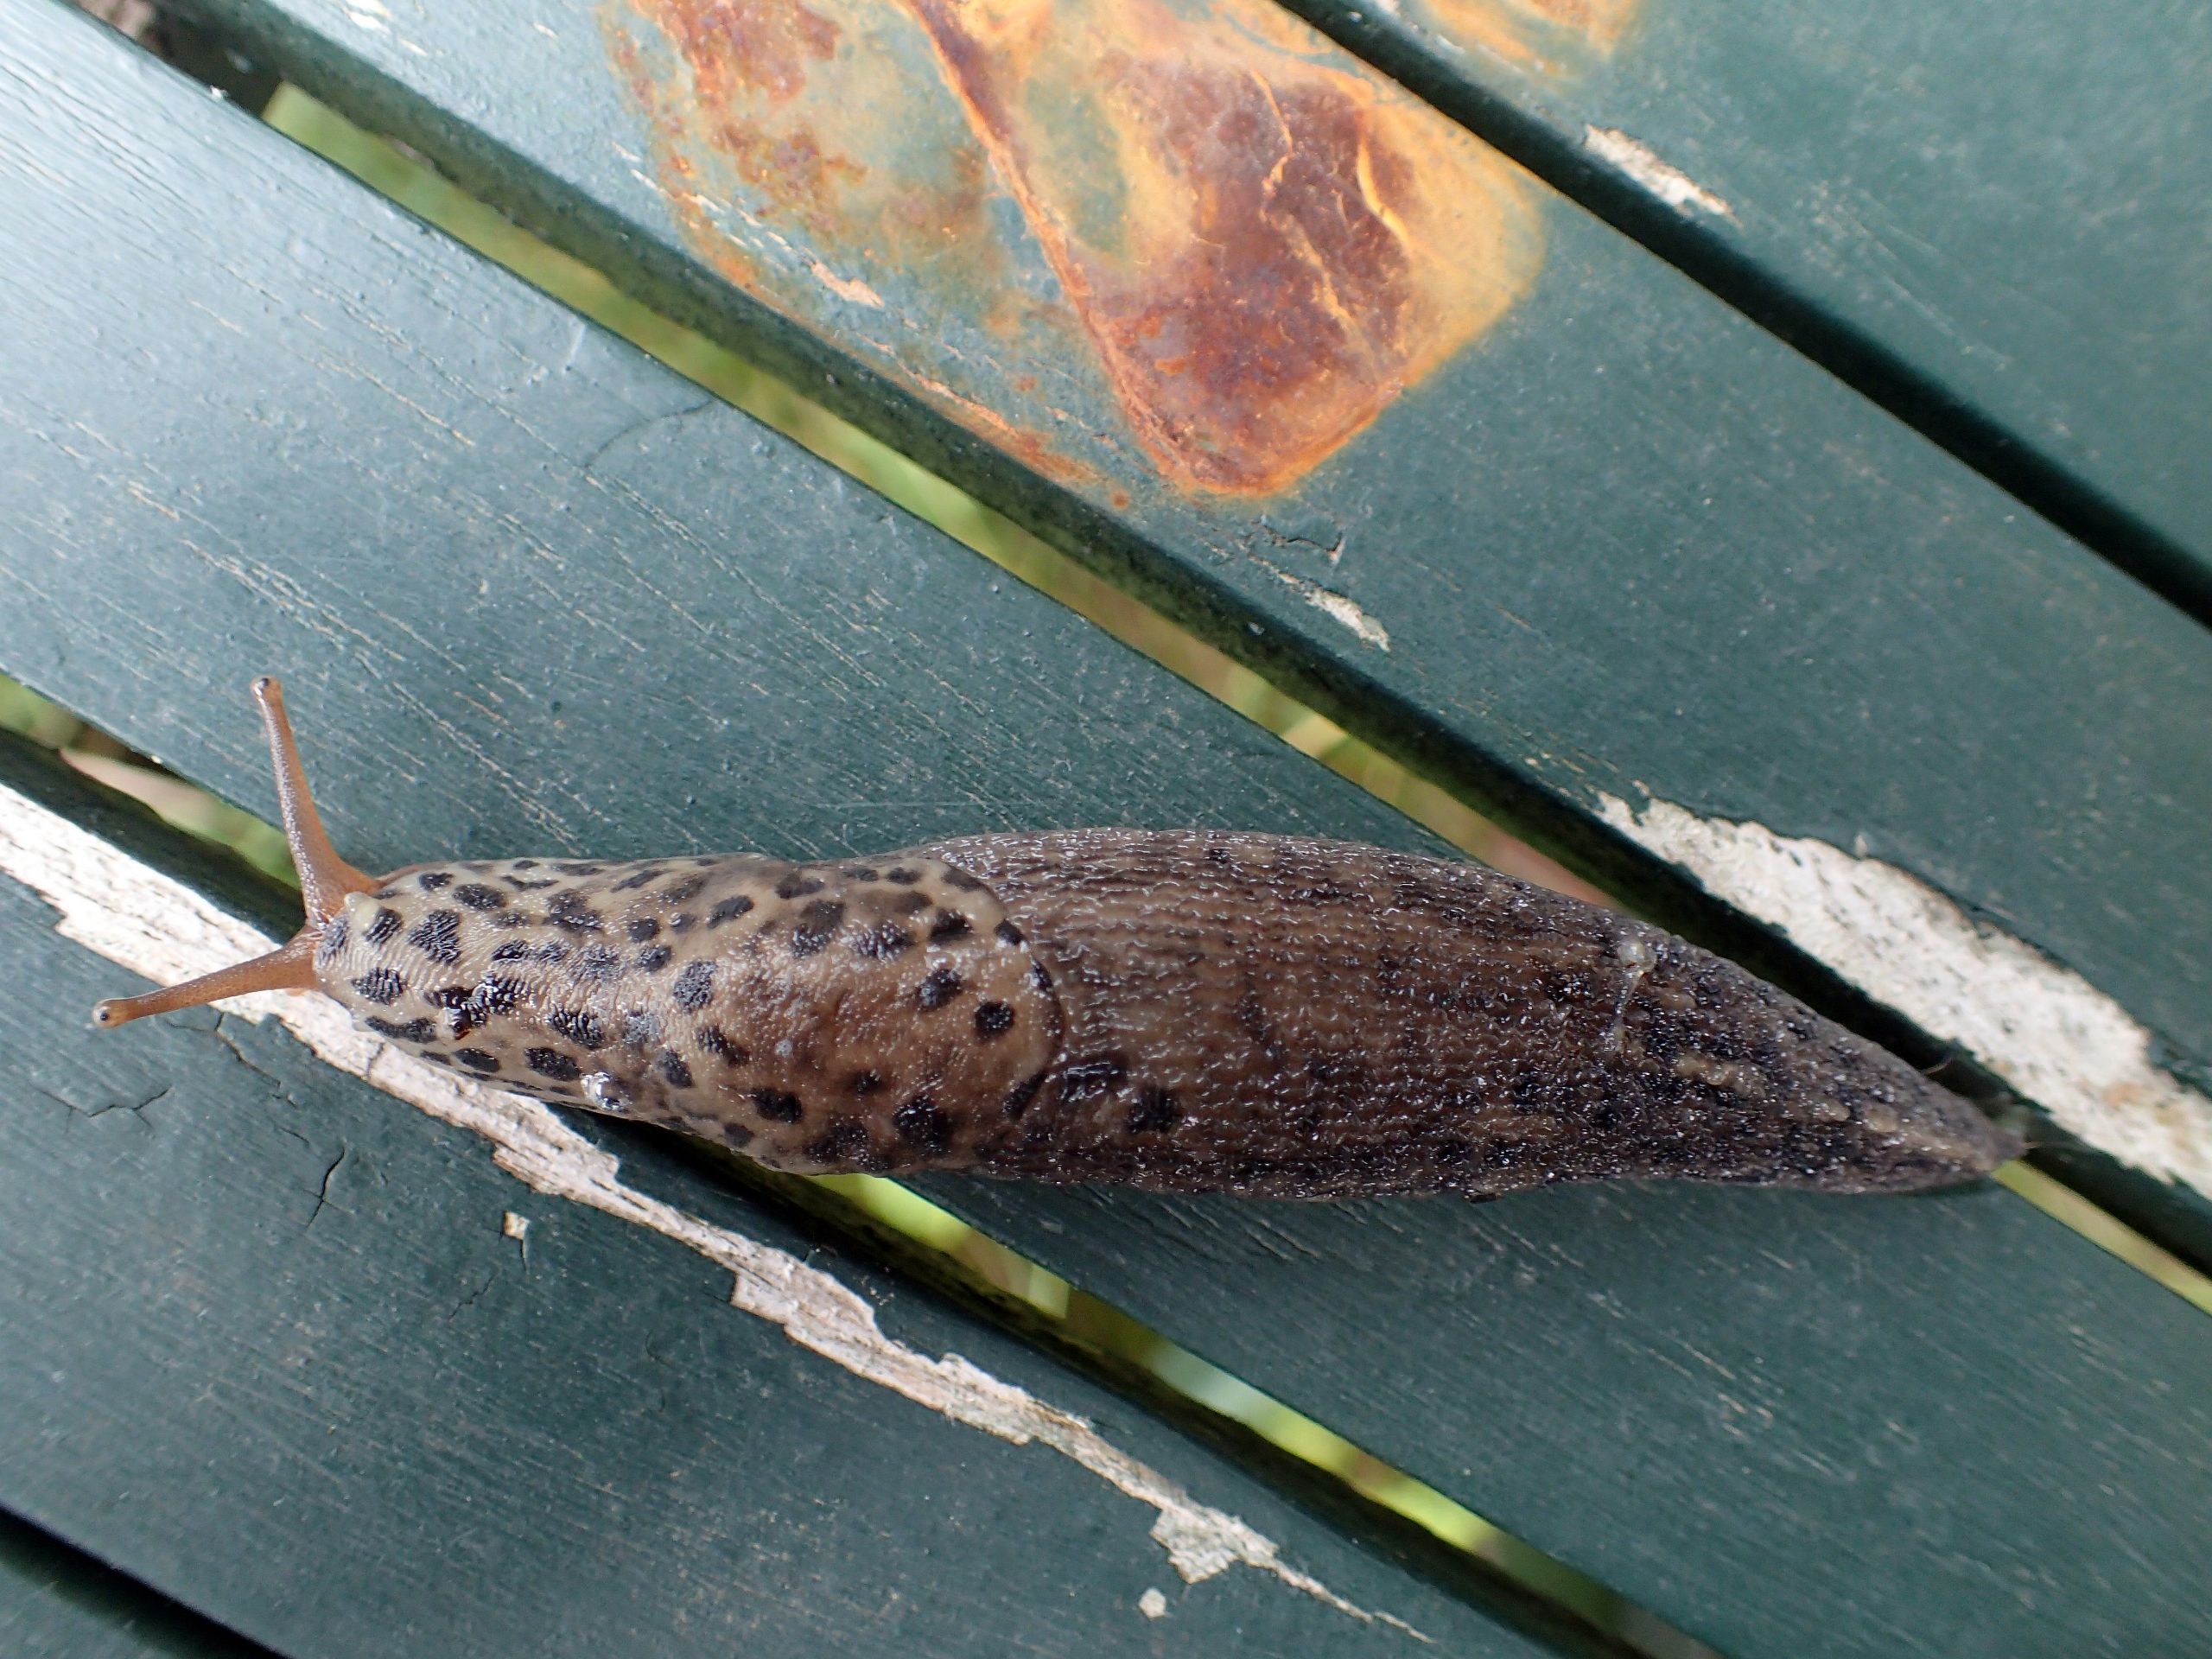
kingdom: Animalia
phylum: Mollusca
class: Gastropoda
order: Stylommatophora
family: Limacidae
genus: Limax
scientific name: Limax maximus
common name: Pantersnegl
